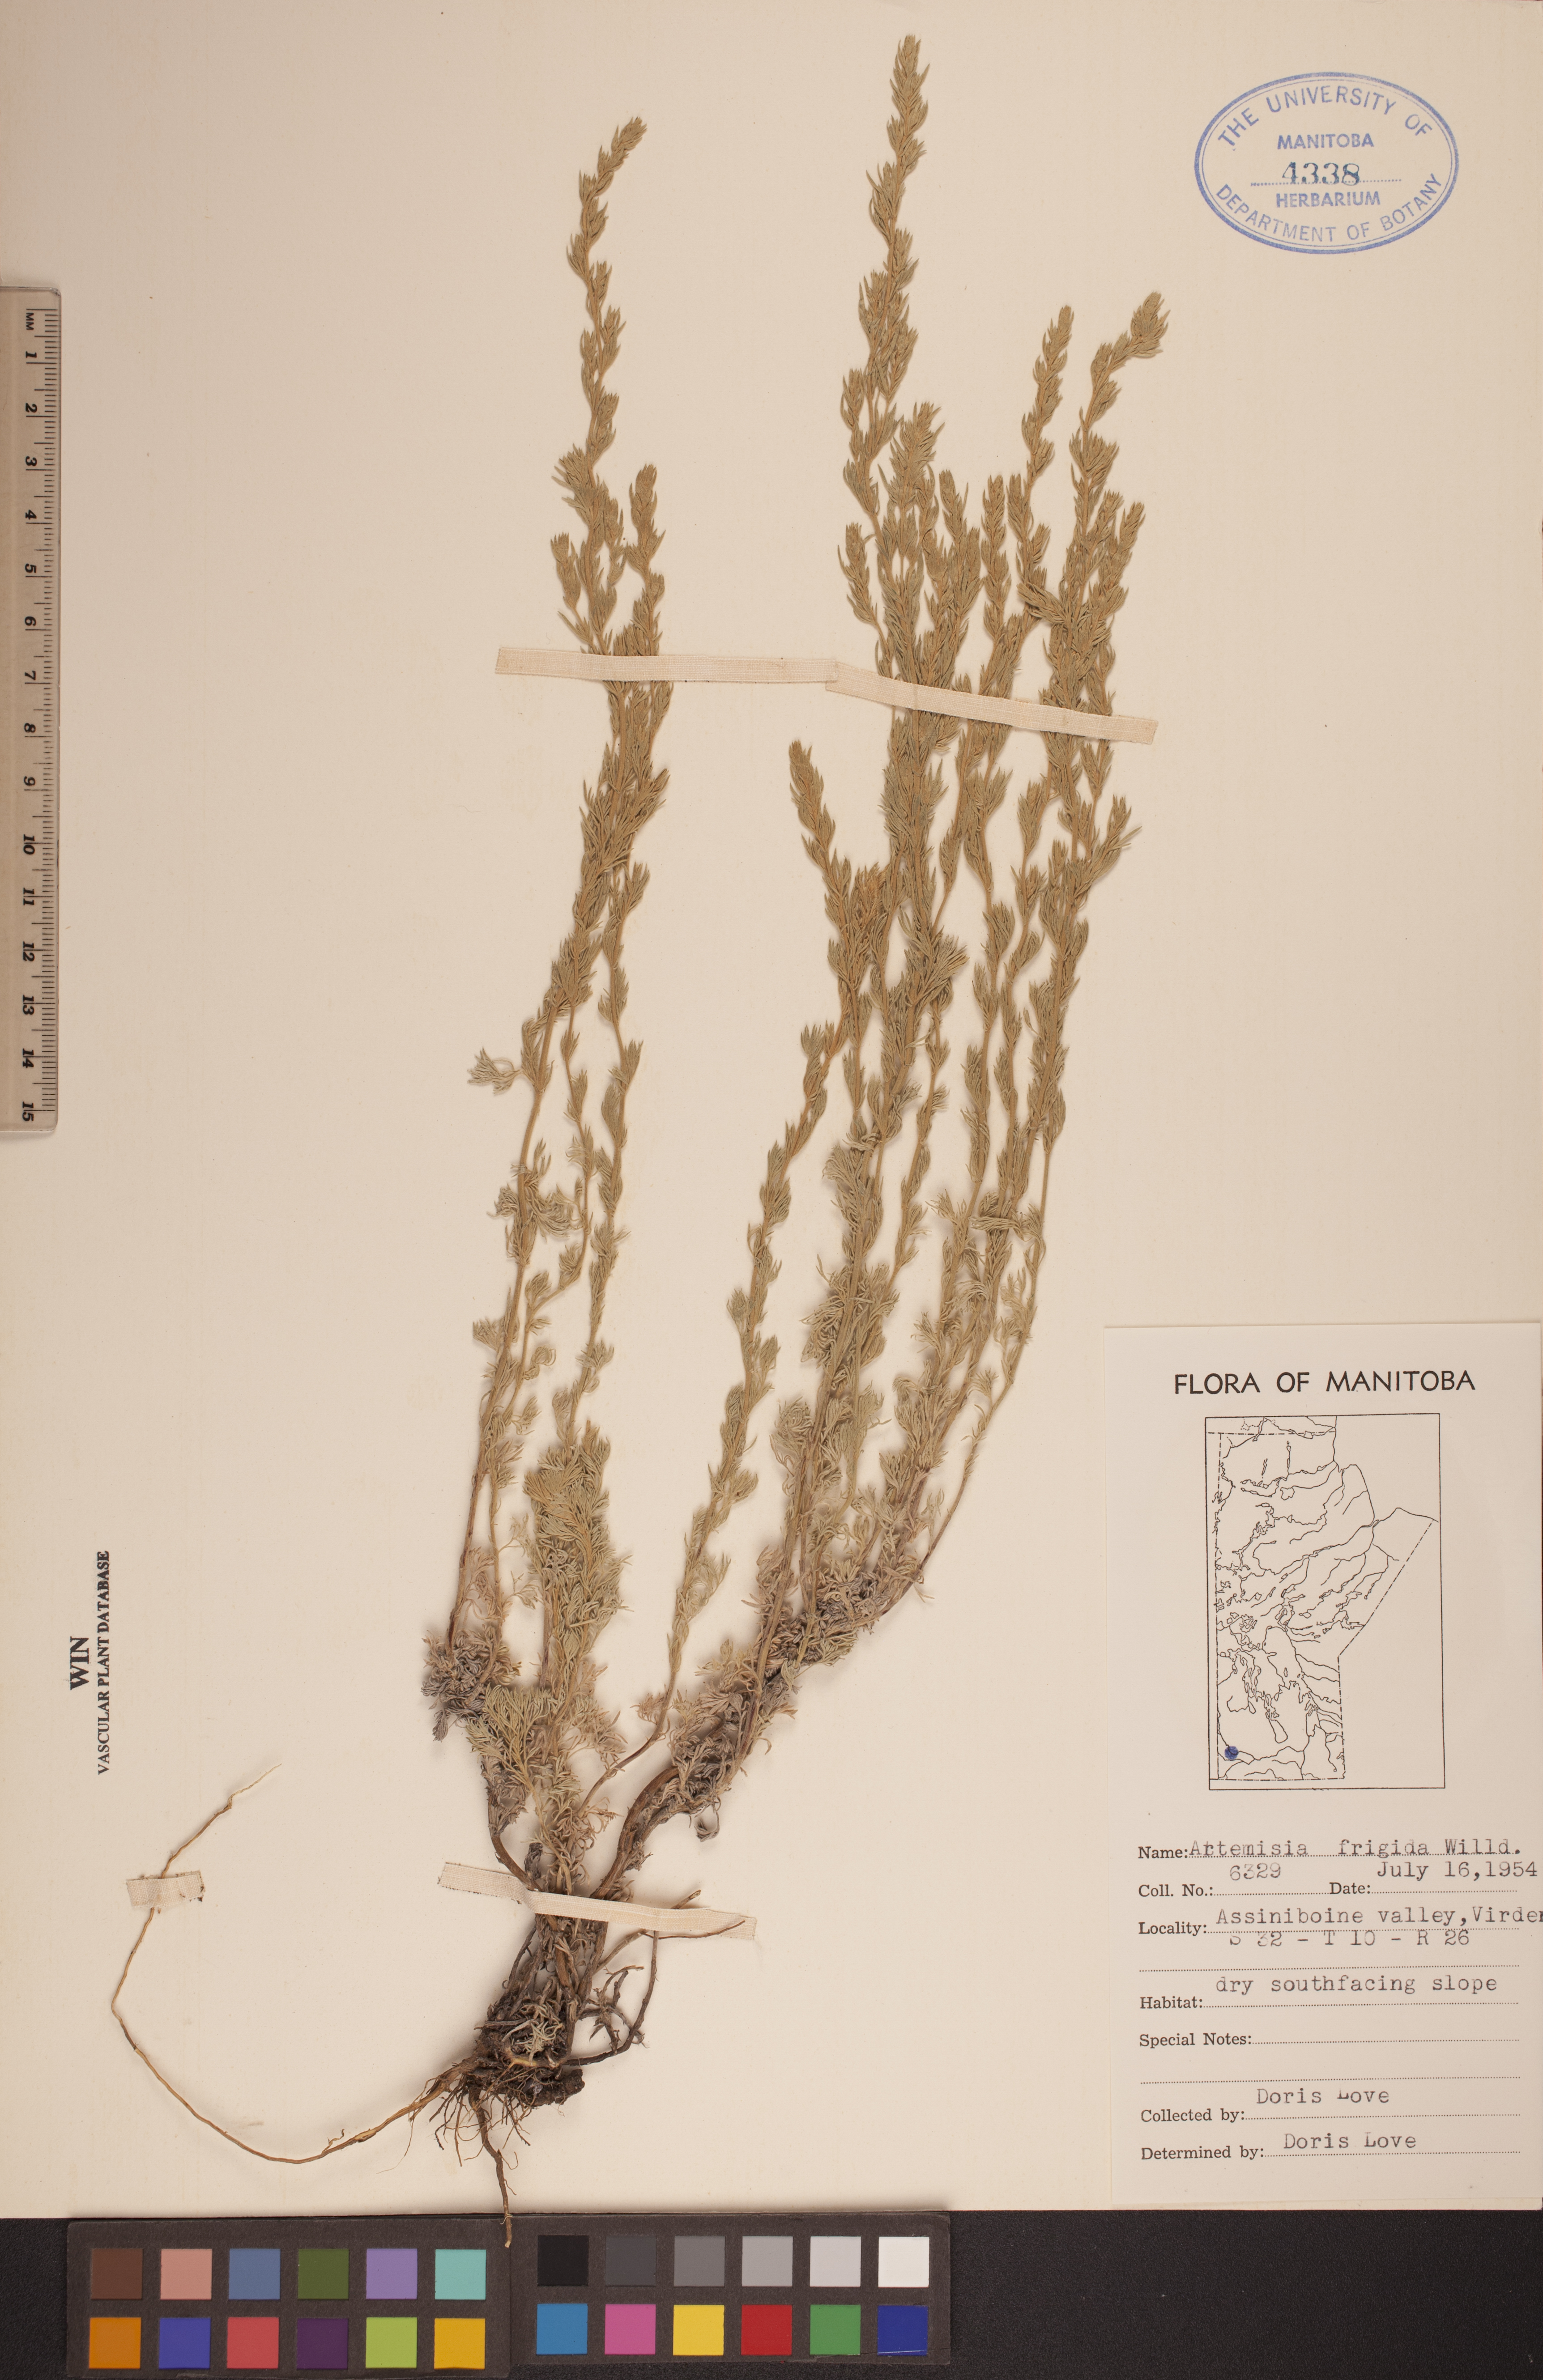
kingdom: Plantae
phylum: Tracheophyta
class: Magnoliopsida
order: Asterales
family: Asteraceae
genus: Artemisia
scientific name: Artemisia frigida
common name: Prairie sagewort
